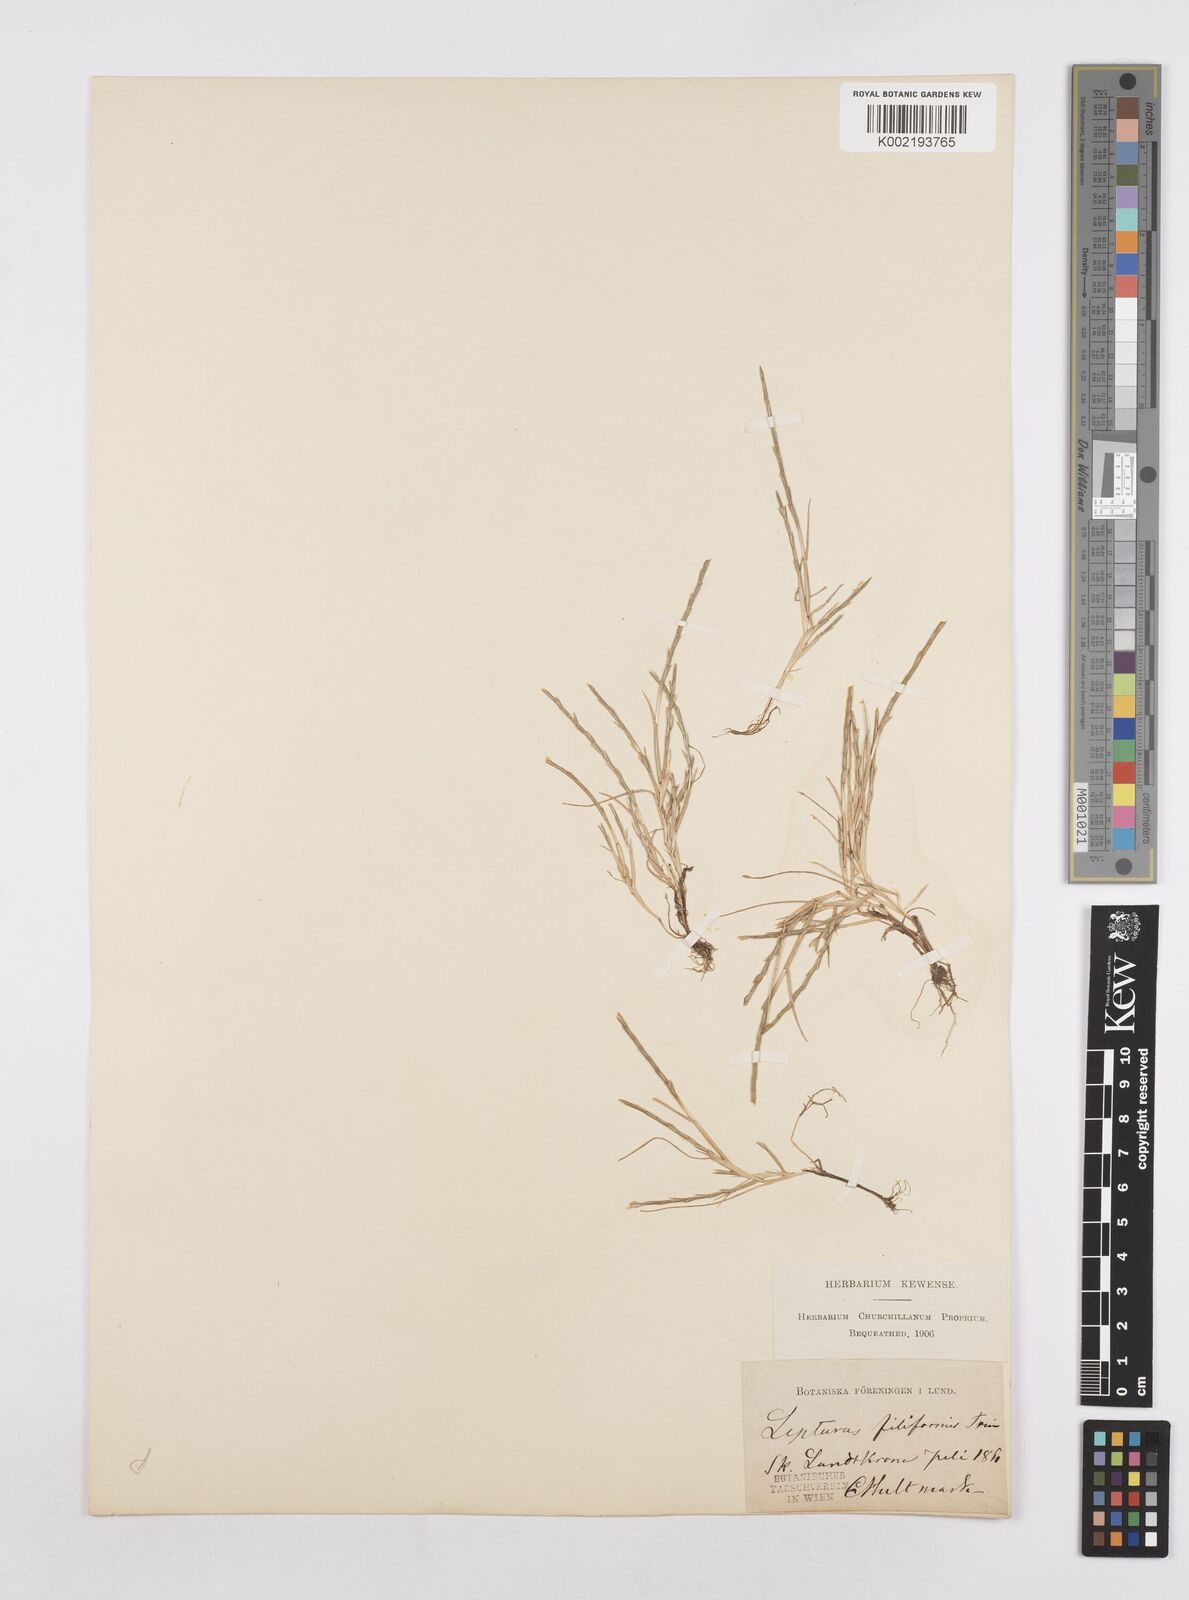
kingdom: Plantae
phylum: Tracheophyta
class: Liliopsida
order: Poales
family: Poaceae
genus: Parapholis
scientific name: Parapholis
